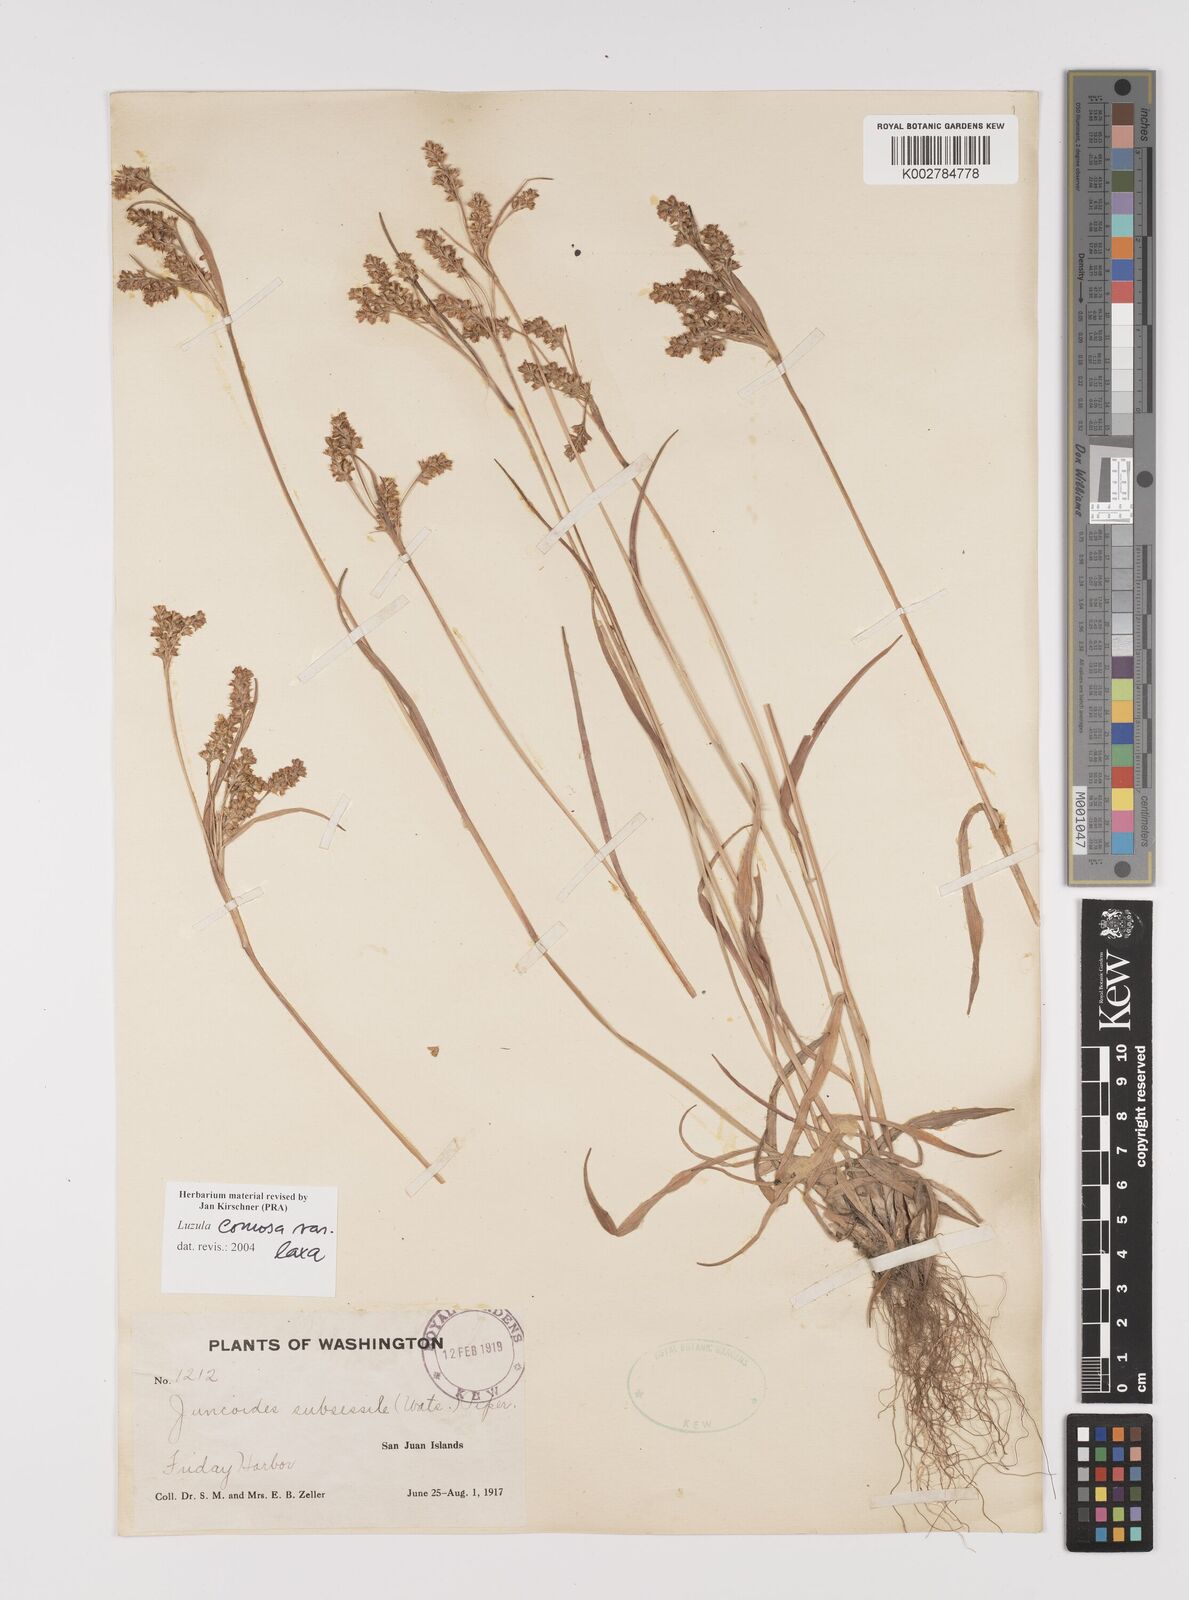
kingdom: Plantae
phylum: Tracheophyta
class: Liliopsida
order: Poales
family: Juncaceae
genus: Luzula
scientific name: Luzula comosa
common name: Pacific woodrush
